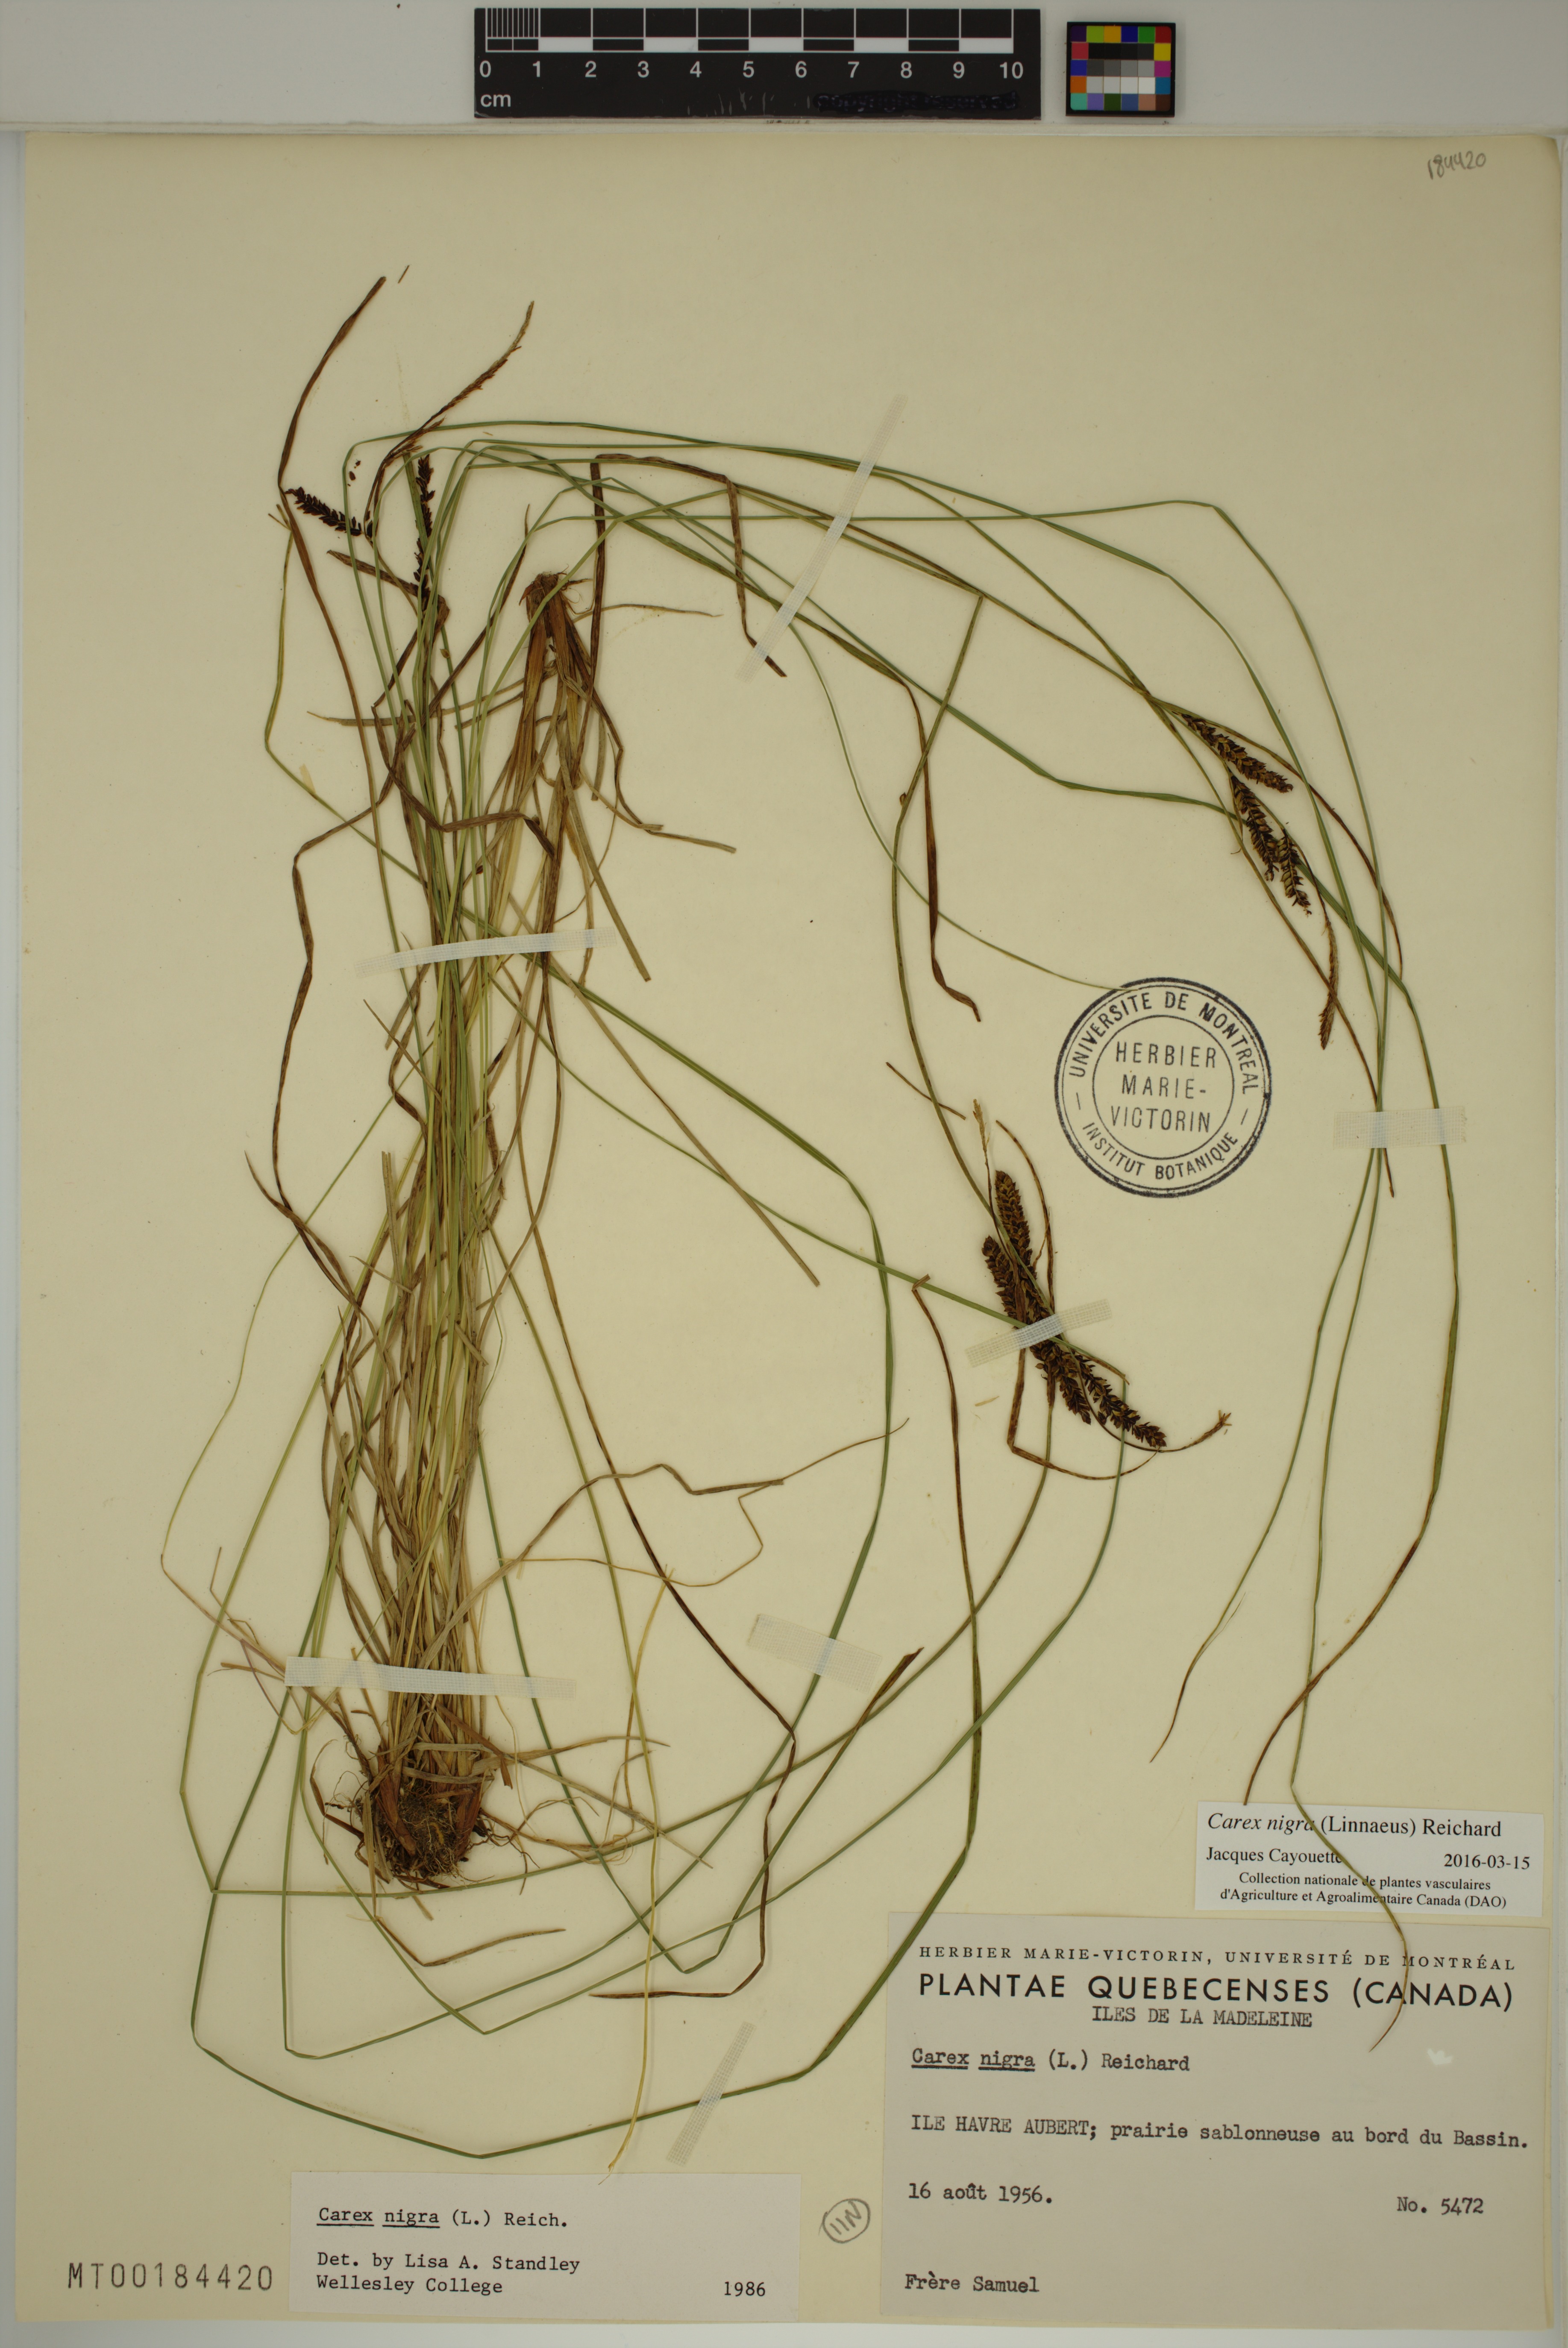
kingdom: Plantae
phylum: Tracheophyta
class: Liliopsida
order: Poales
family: Cyperaceae
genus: Carex
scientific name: Carex nigra
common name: Common sedge
